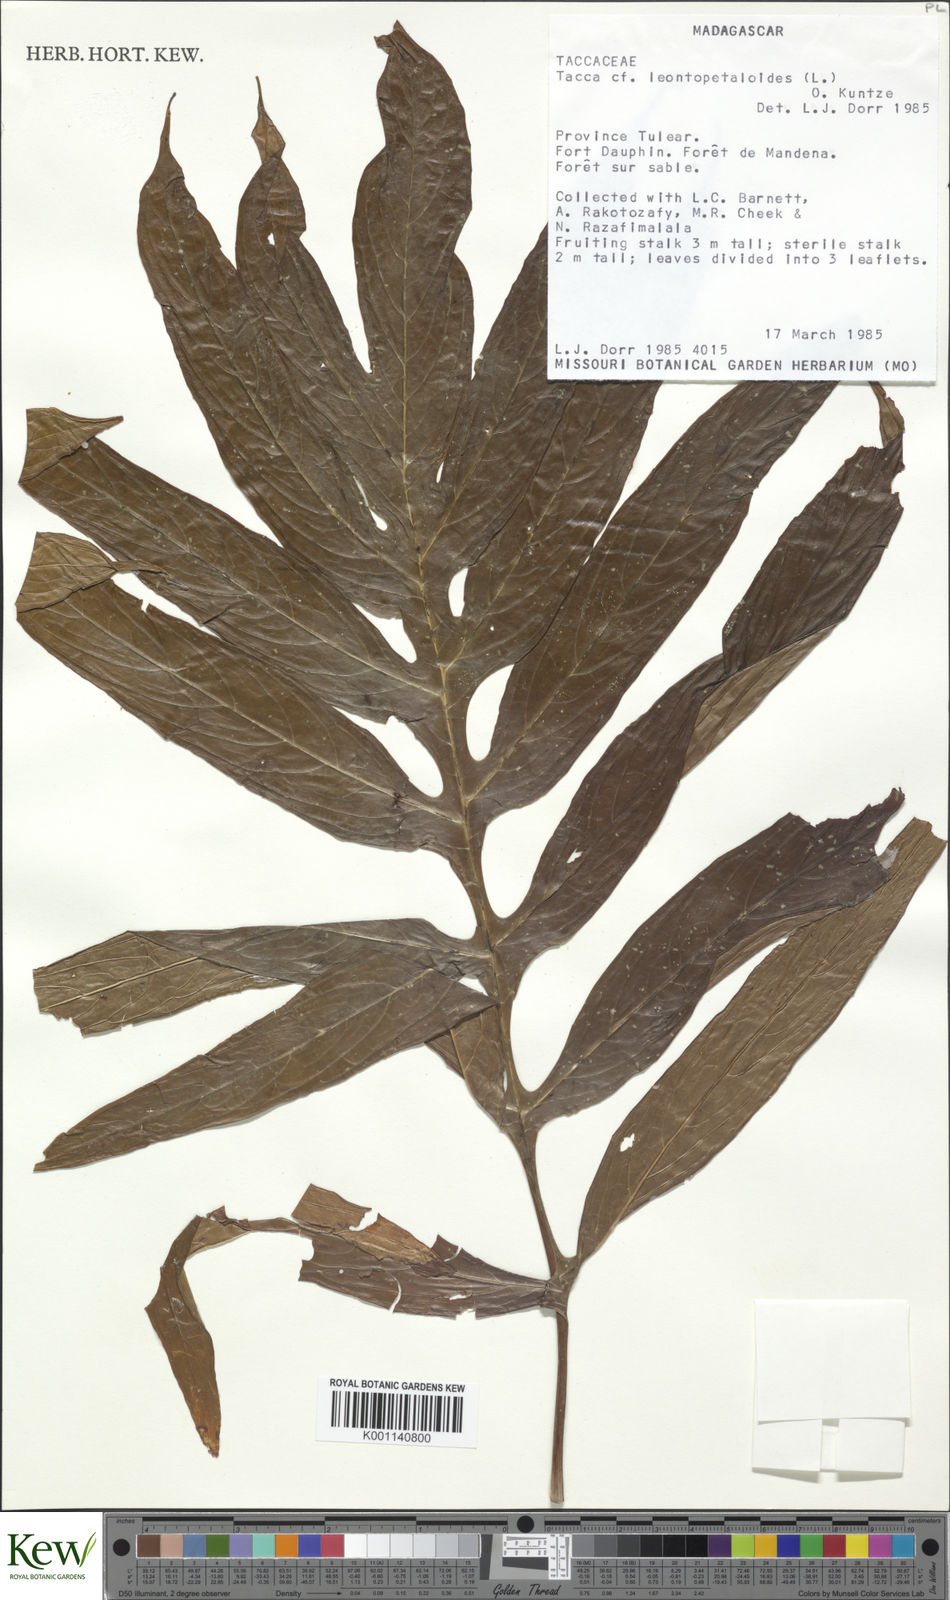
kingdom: Plantae
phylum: Tracheophyta
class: Liliopsida
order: Dioscoreales
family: Dioscoreaceae
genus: Tacca
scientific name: Tacca leontopetaloides
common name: Arrowroot
